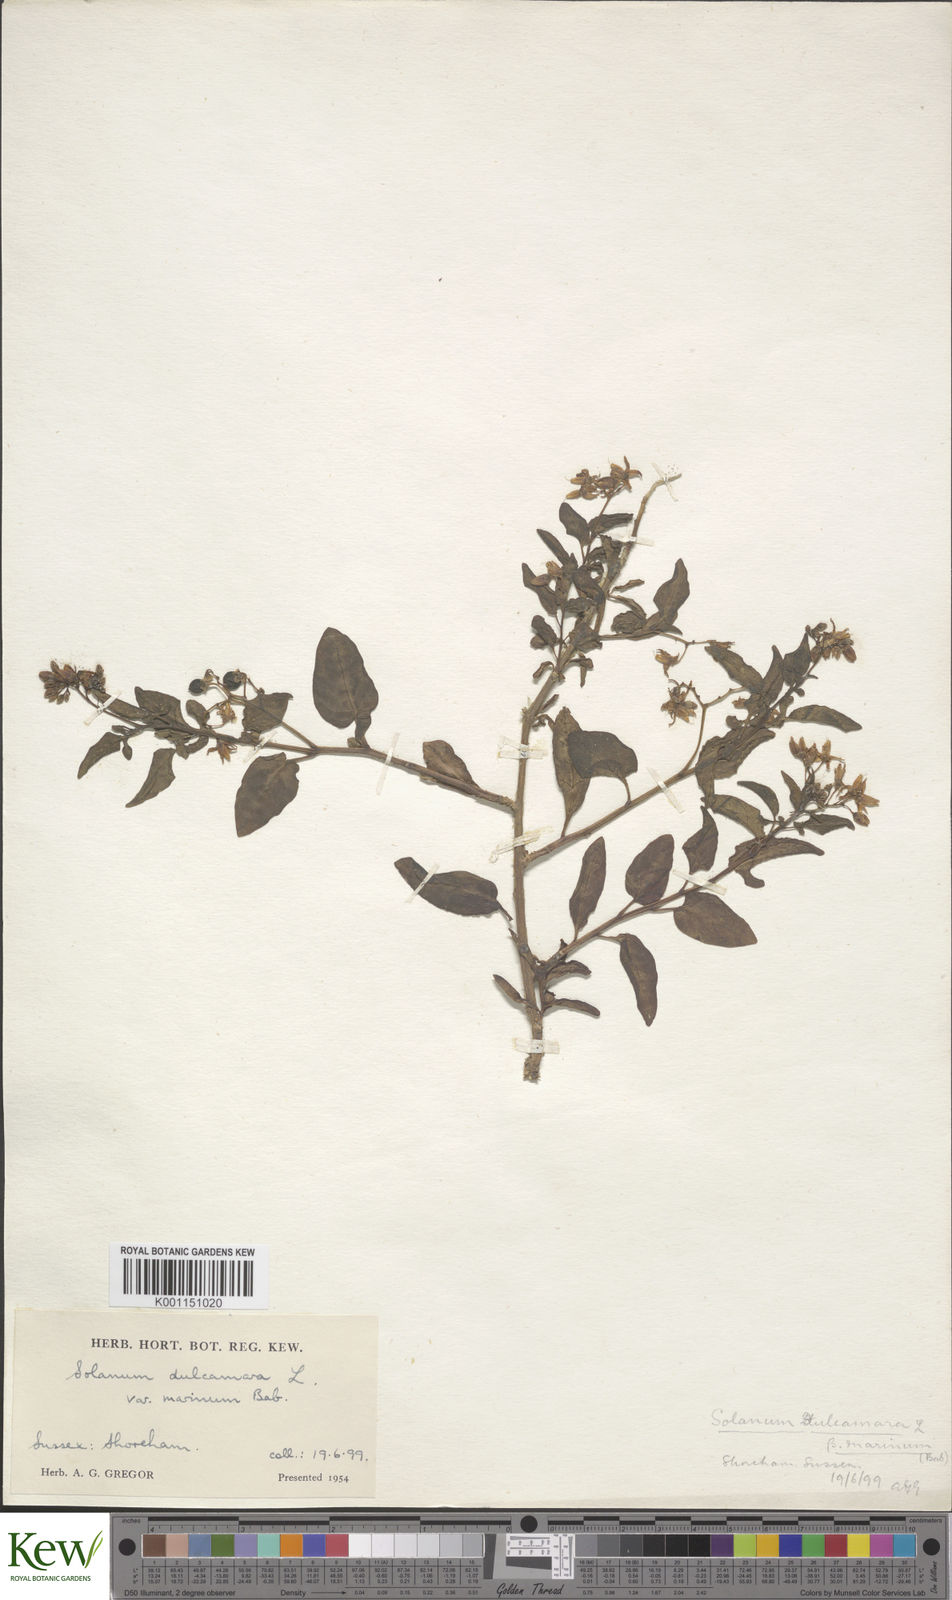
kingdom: Plantae
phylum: Tracheophyta
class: Magnoliopsida
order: Solanales
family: Solanaceae
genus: Solanum
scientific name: Solanum dulcamara
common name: Climbing nightshade
